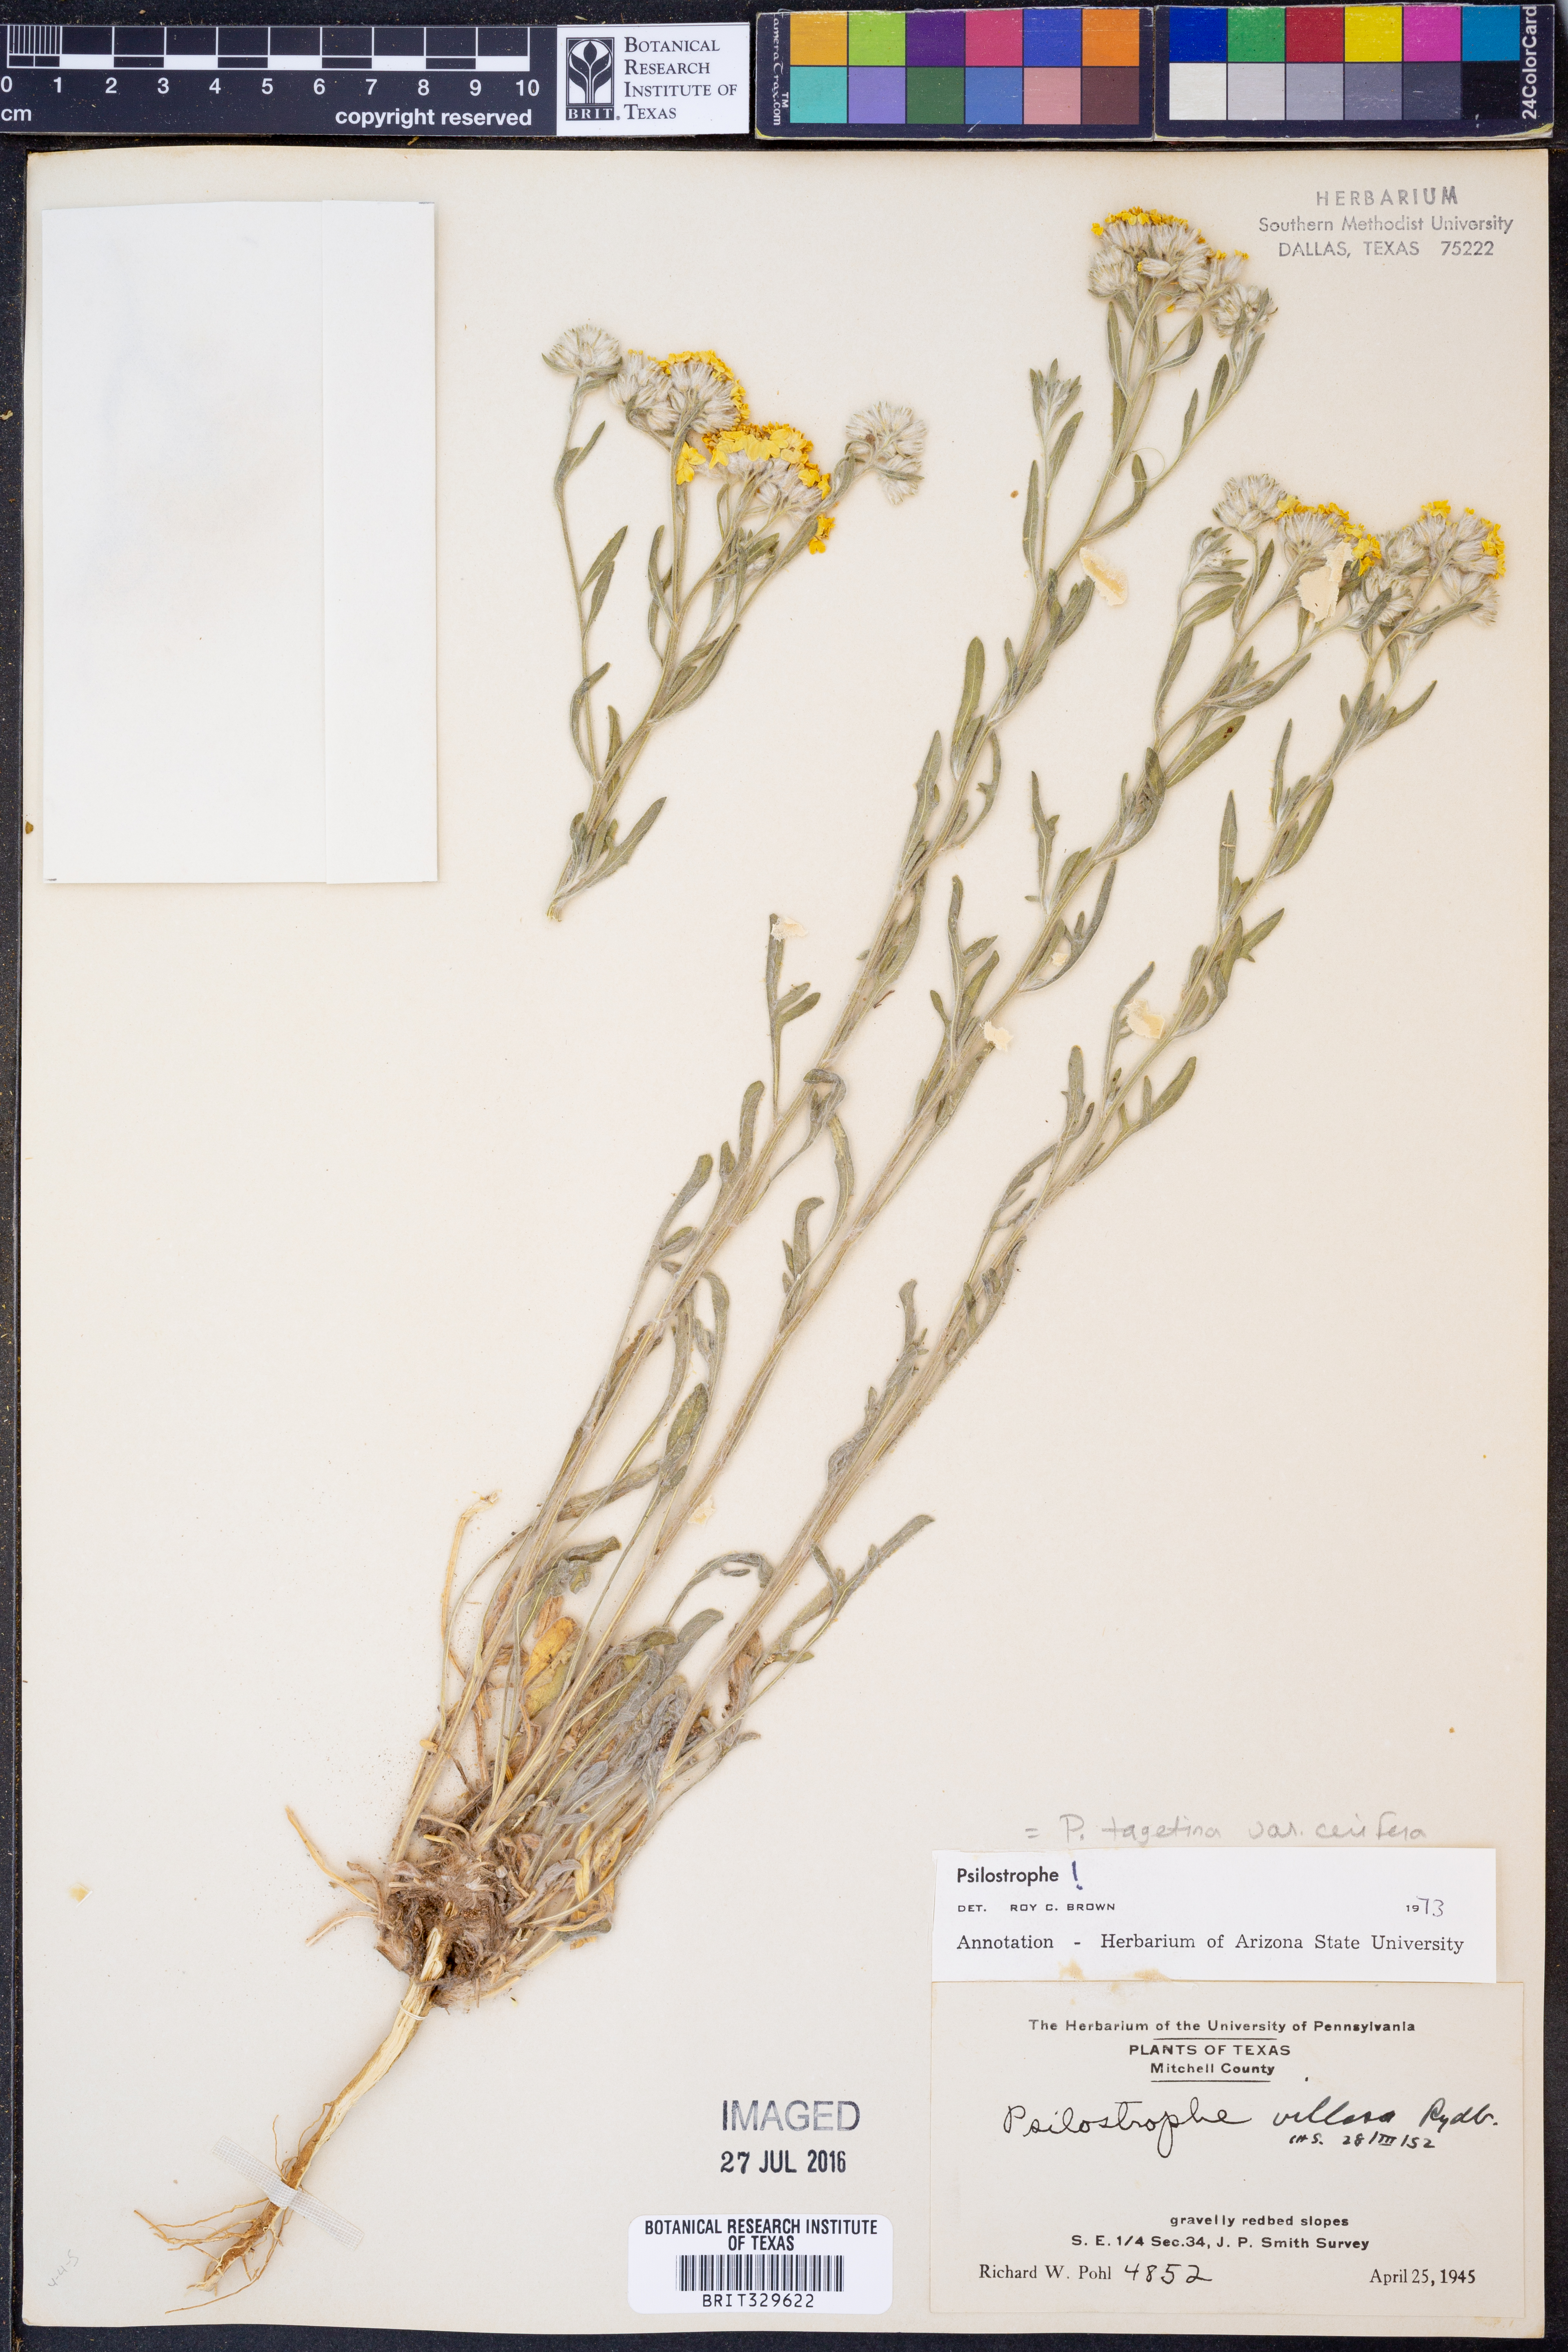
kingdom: Plantae
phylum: Tracheophyta
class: Magnoliopsida
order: Asterales
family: Asteraceae
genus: Psilostrophe
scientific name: Psilostrophe villosa
